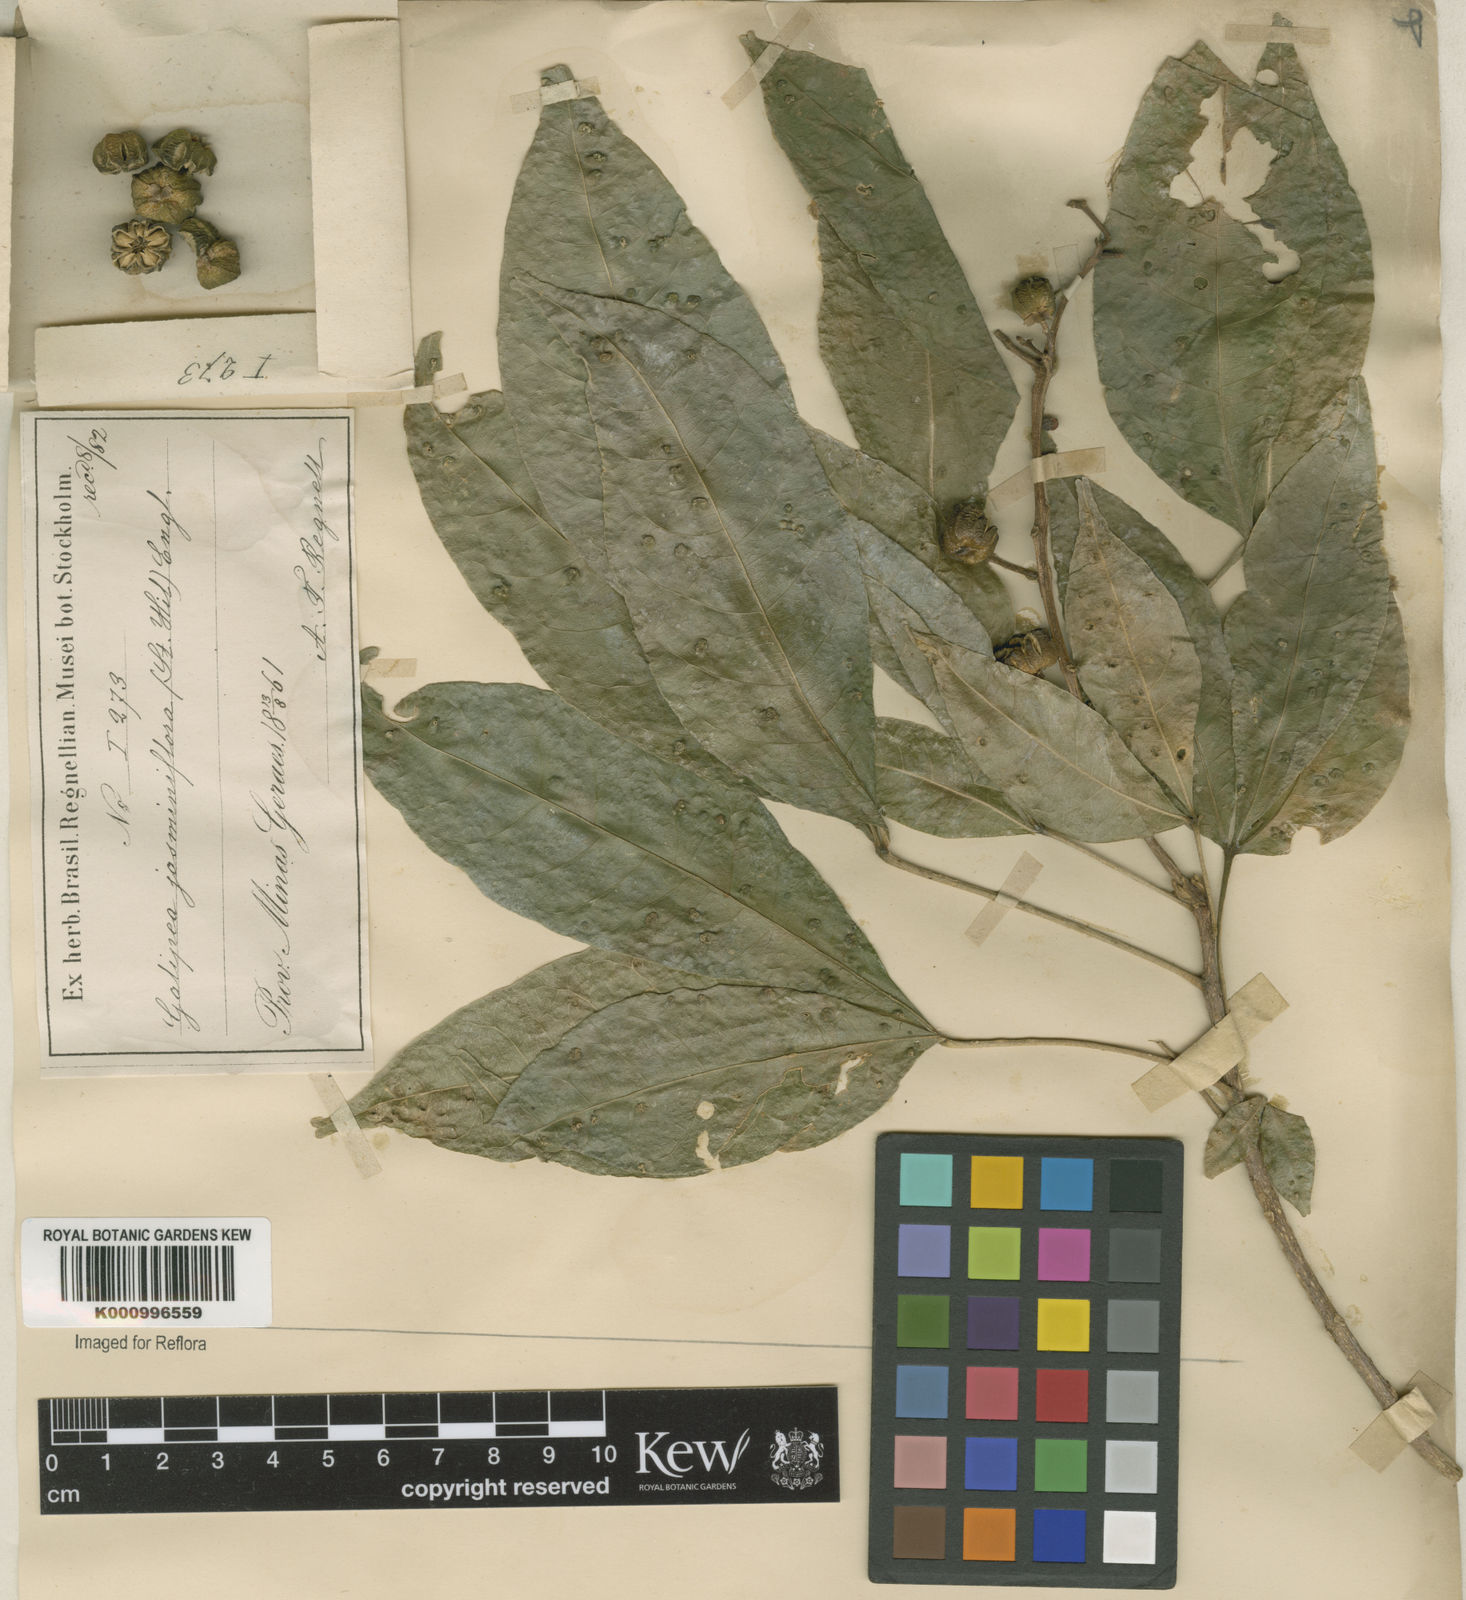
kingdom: Plantae
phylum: Tracheophyta
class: Magnoliopsida
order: Sapindales
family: Rutaceae
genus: Galipea
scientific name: Galipea
